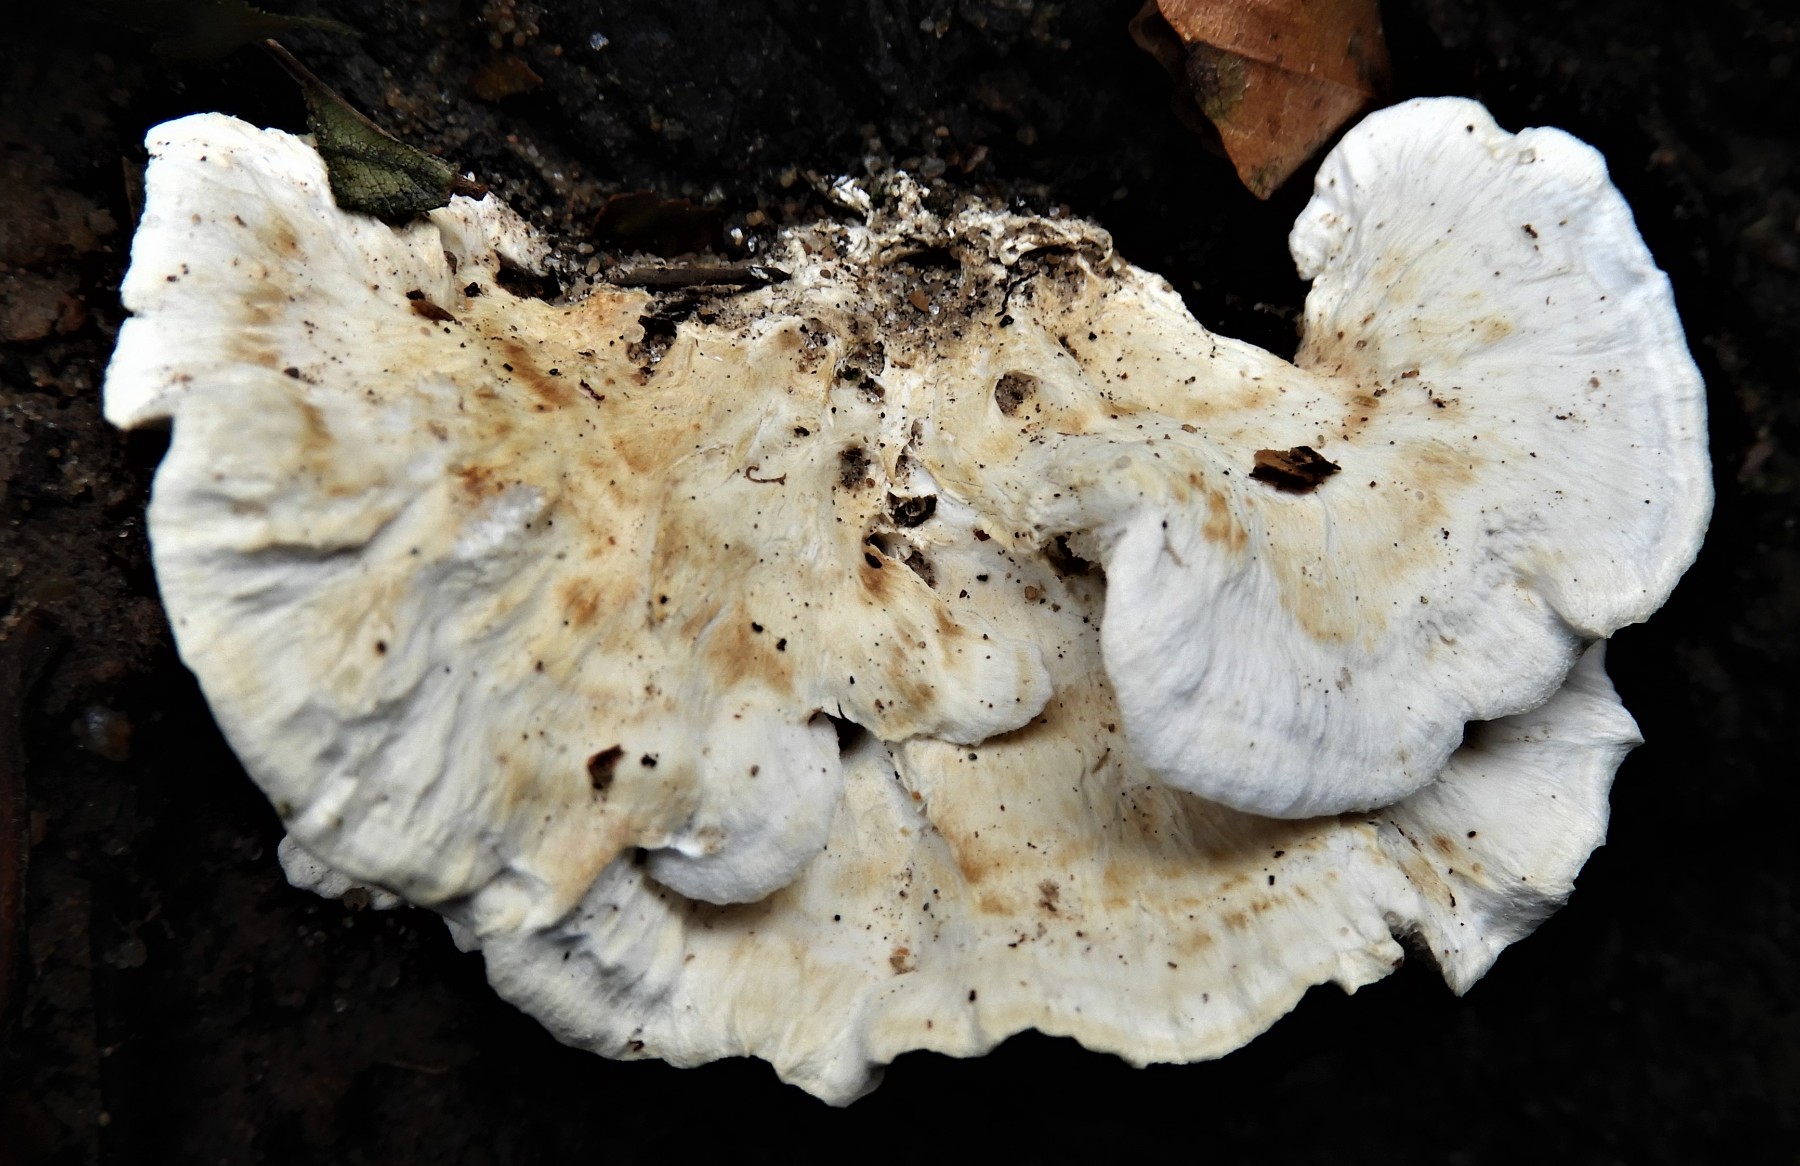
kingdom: Fungi
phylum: Basidiomycota
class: Agaricomycetes
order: Polyporales
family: Fomitopsidaceae
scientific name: Fomitopsidaceae
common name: hovporesvampfamilien
